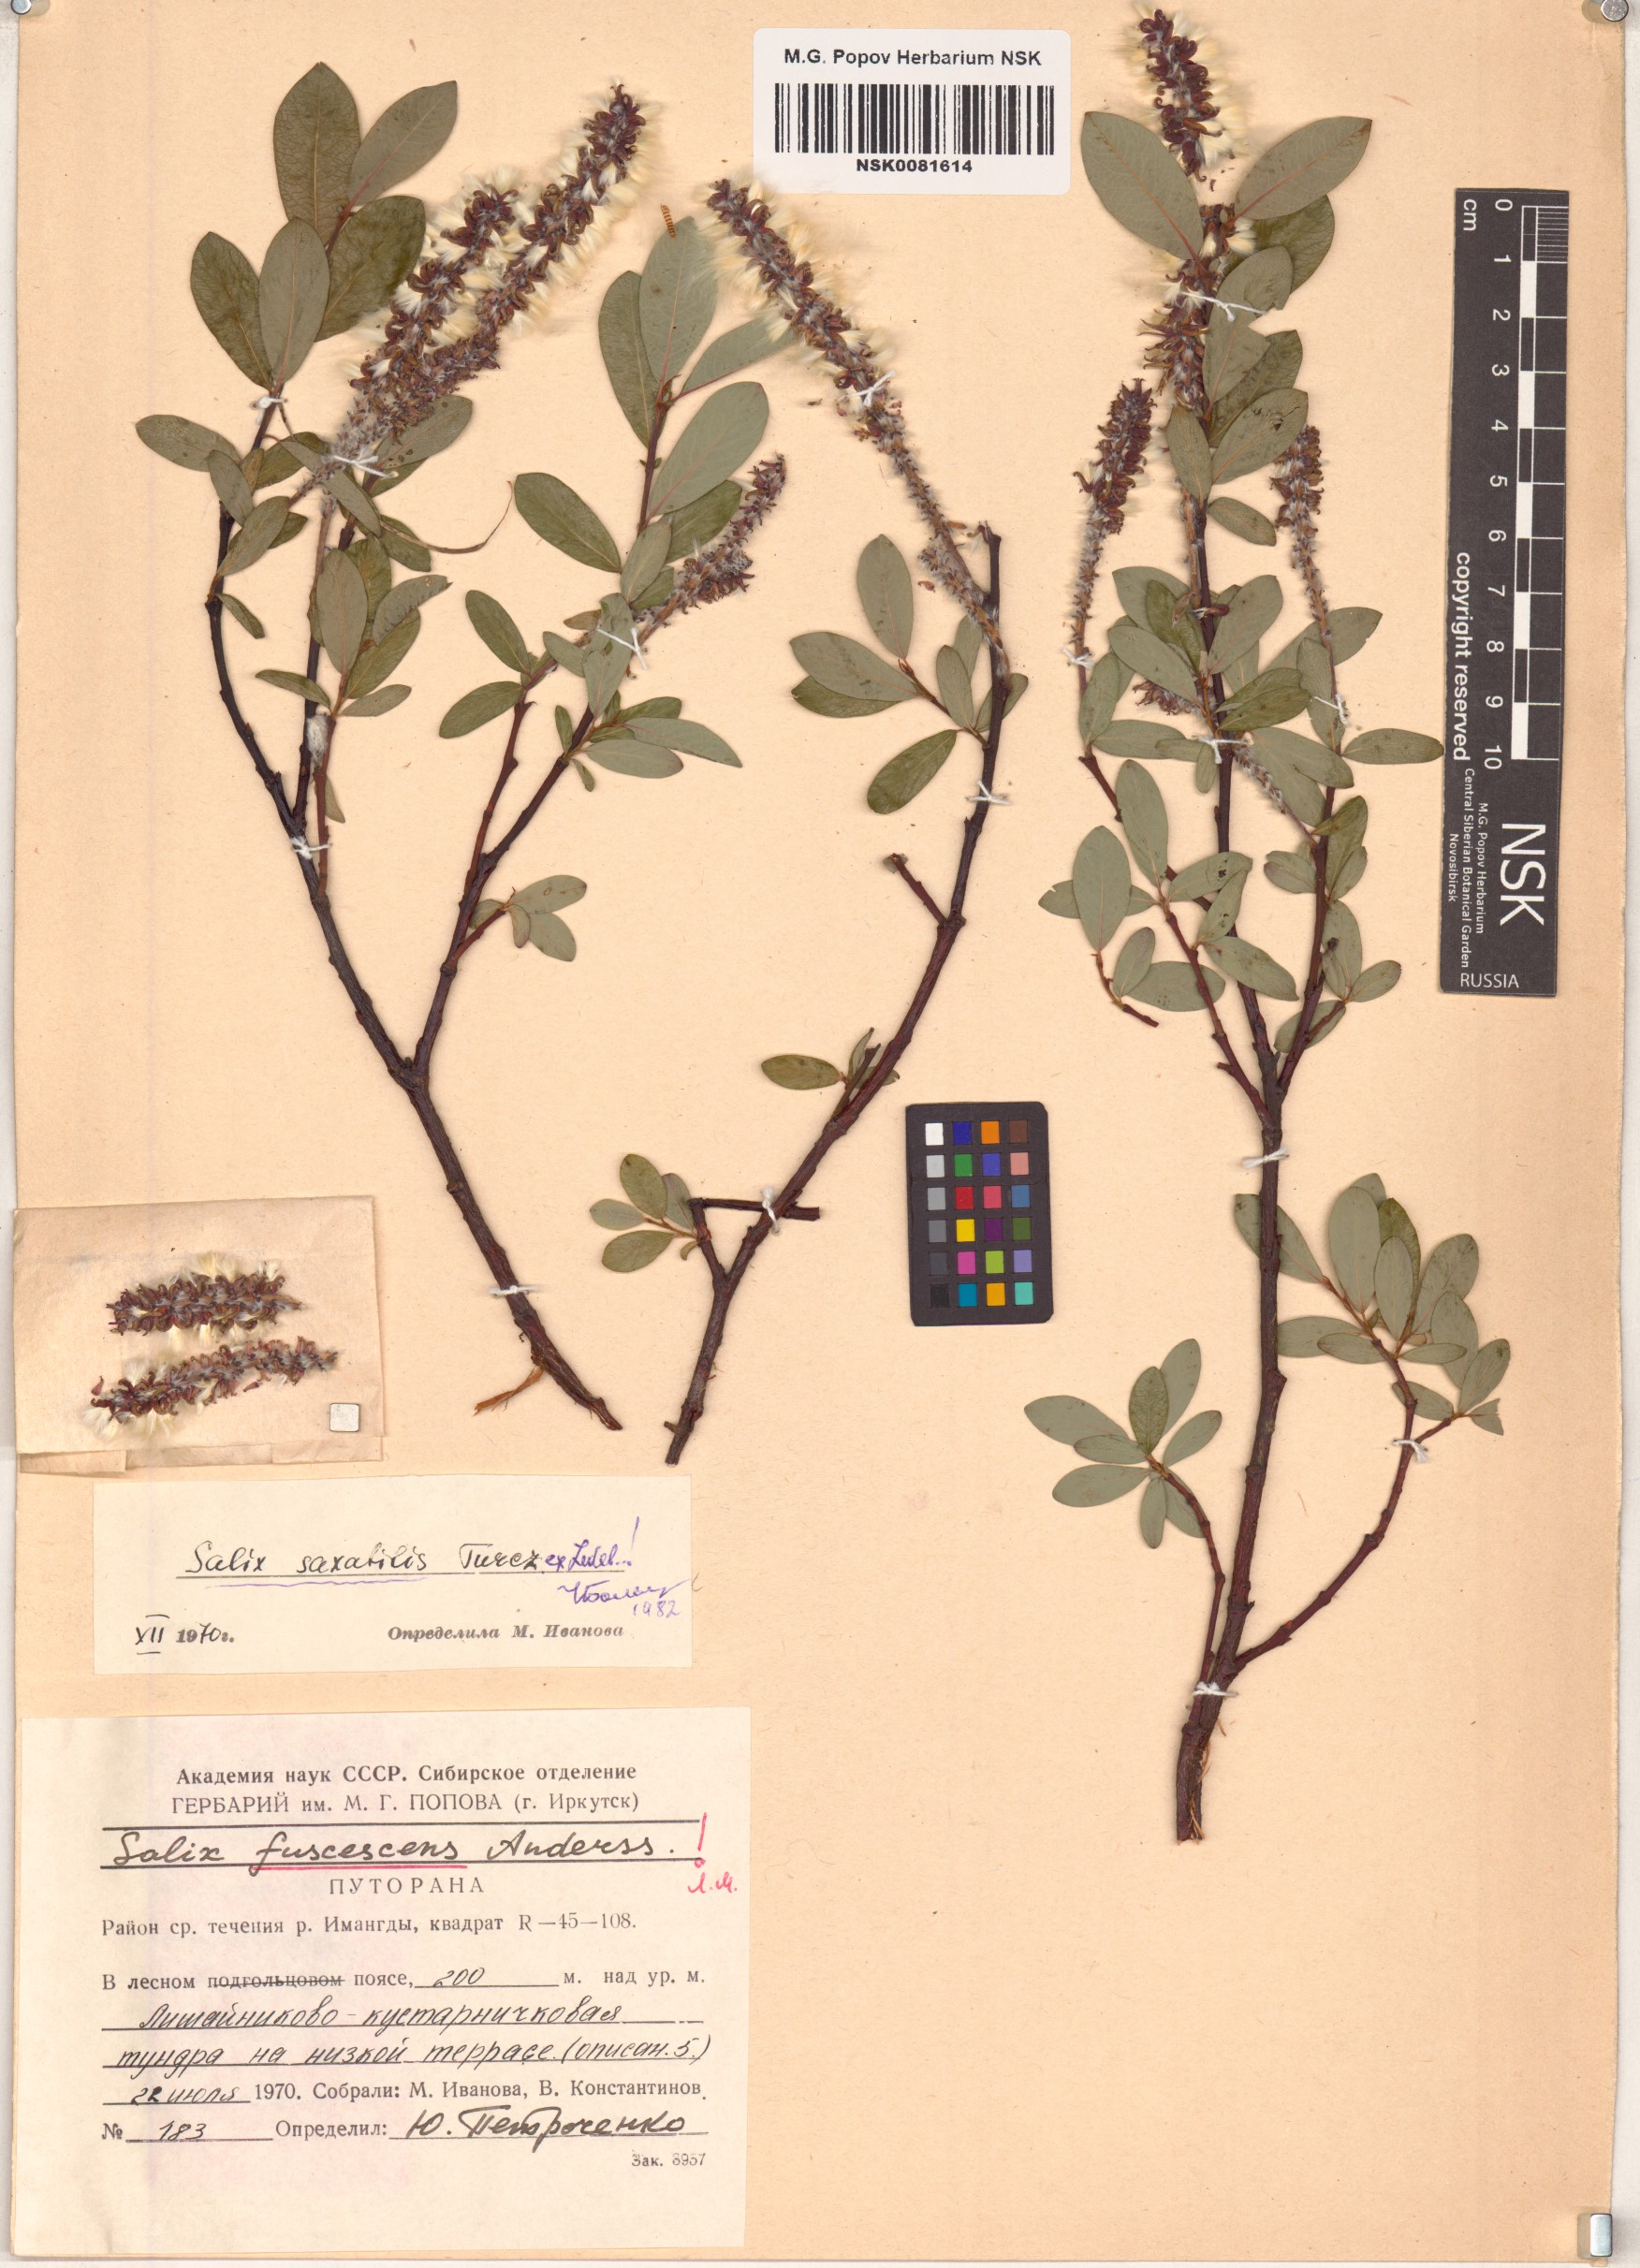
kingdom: Plantae
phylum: Tracheophyta
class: Magnoliopsida
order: Malpighiales
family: Salicaceae
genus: Salix
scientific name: Salix saxatilis
